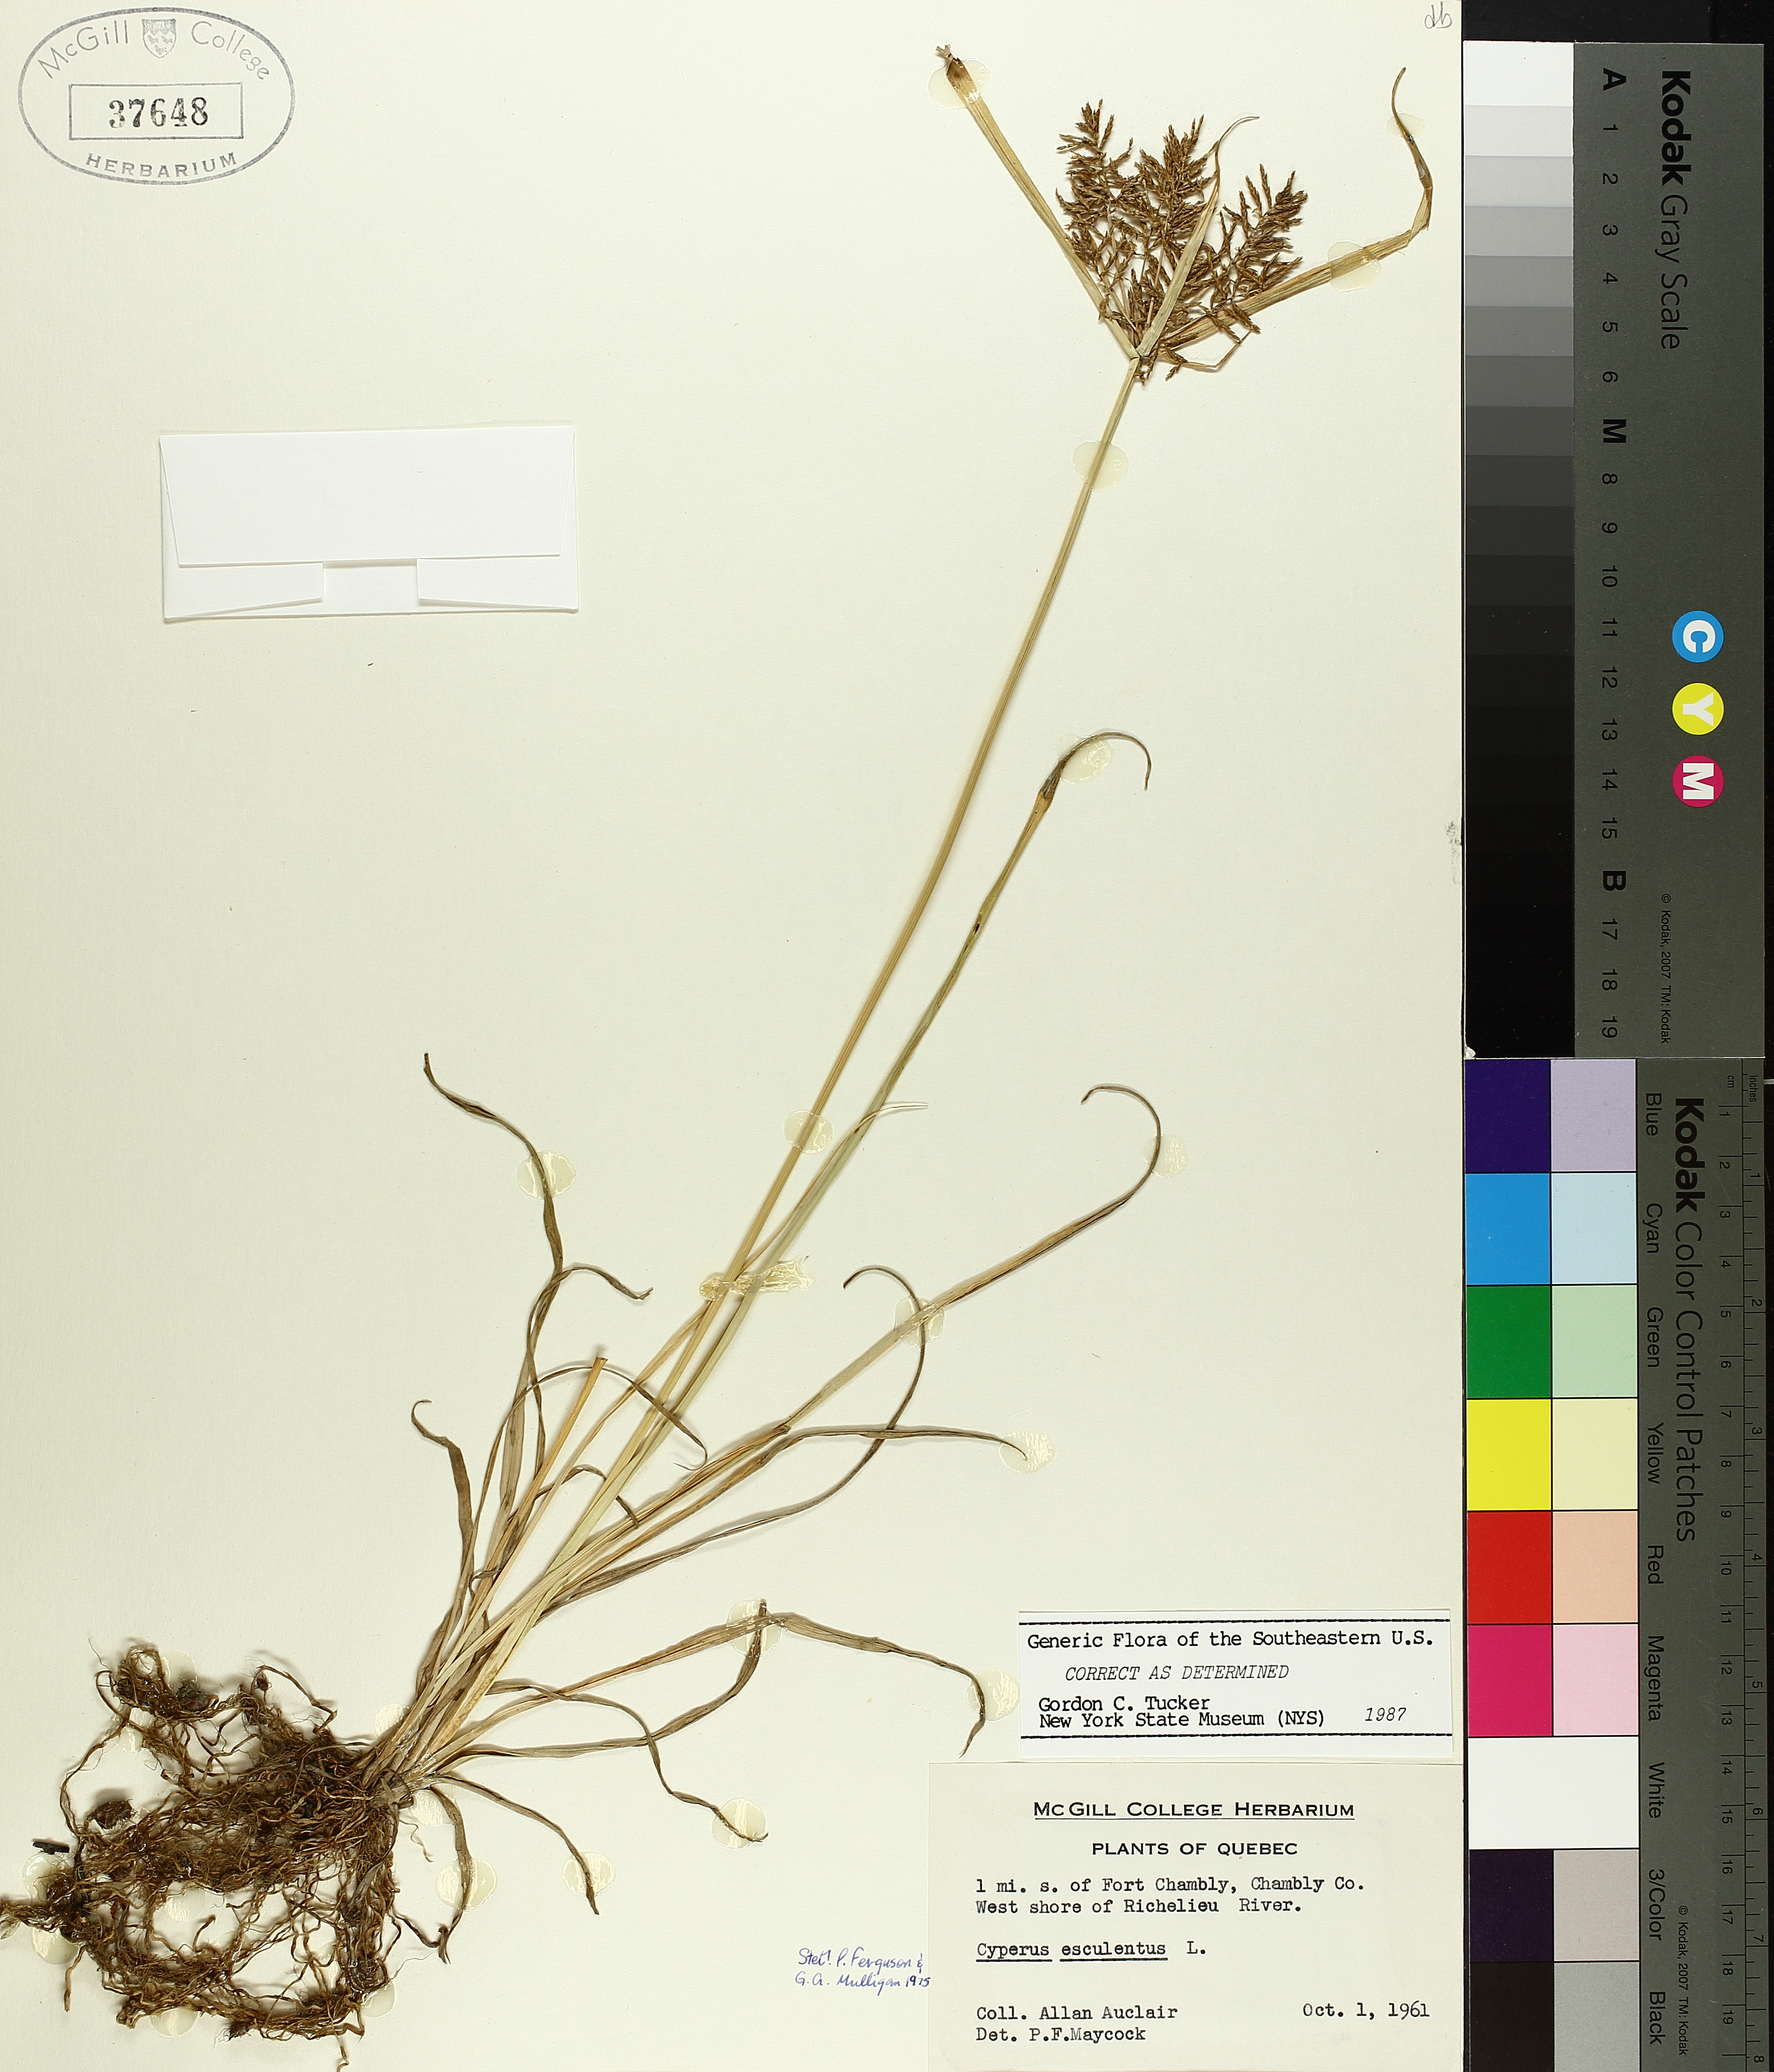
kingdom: Plantae
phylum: Tracheophyta
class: Liliopsida
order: Poales
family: Cyperaceae
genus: Cyperus
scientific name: Cyperus esculentus
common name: Yellow nutsedge
